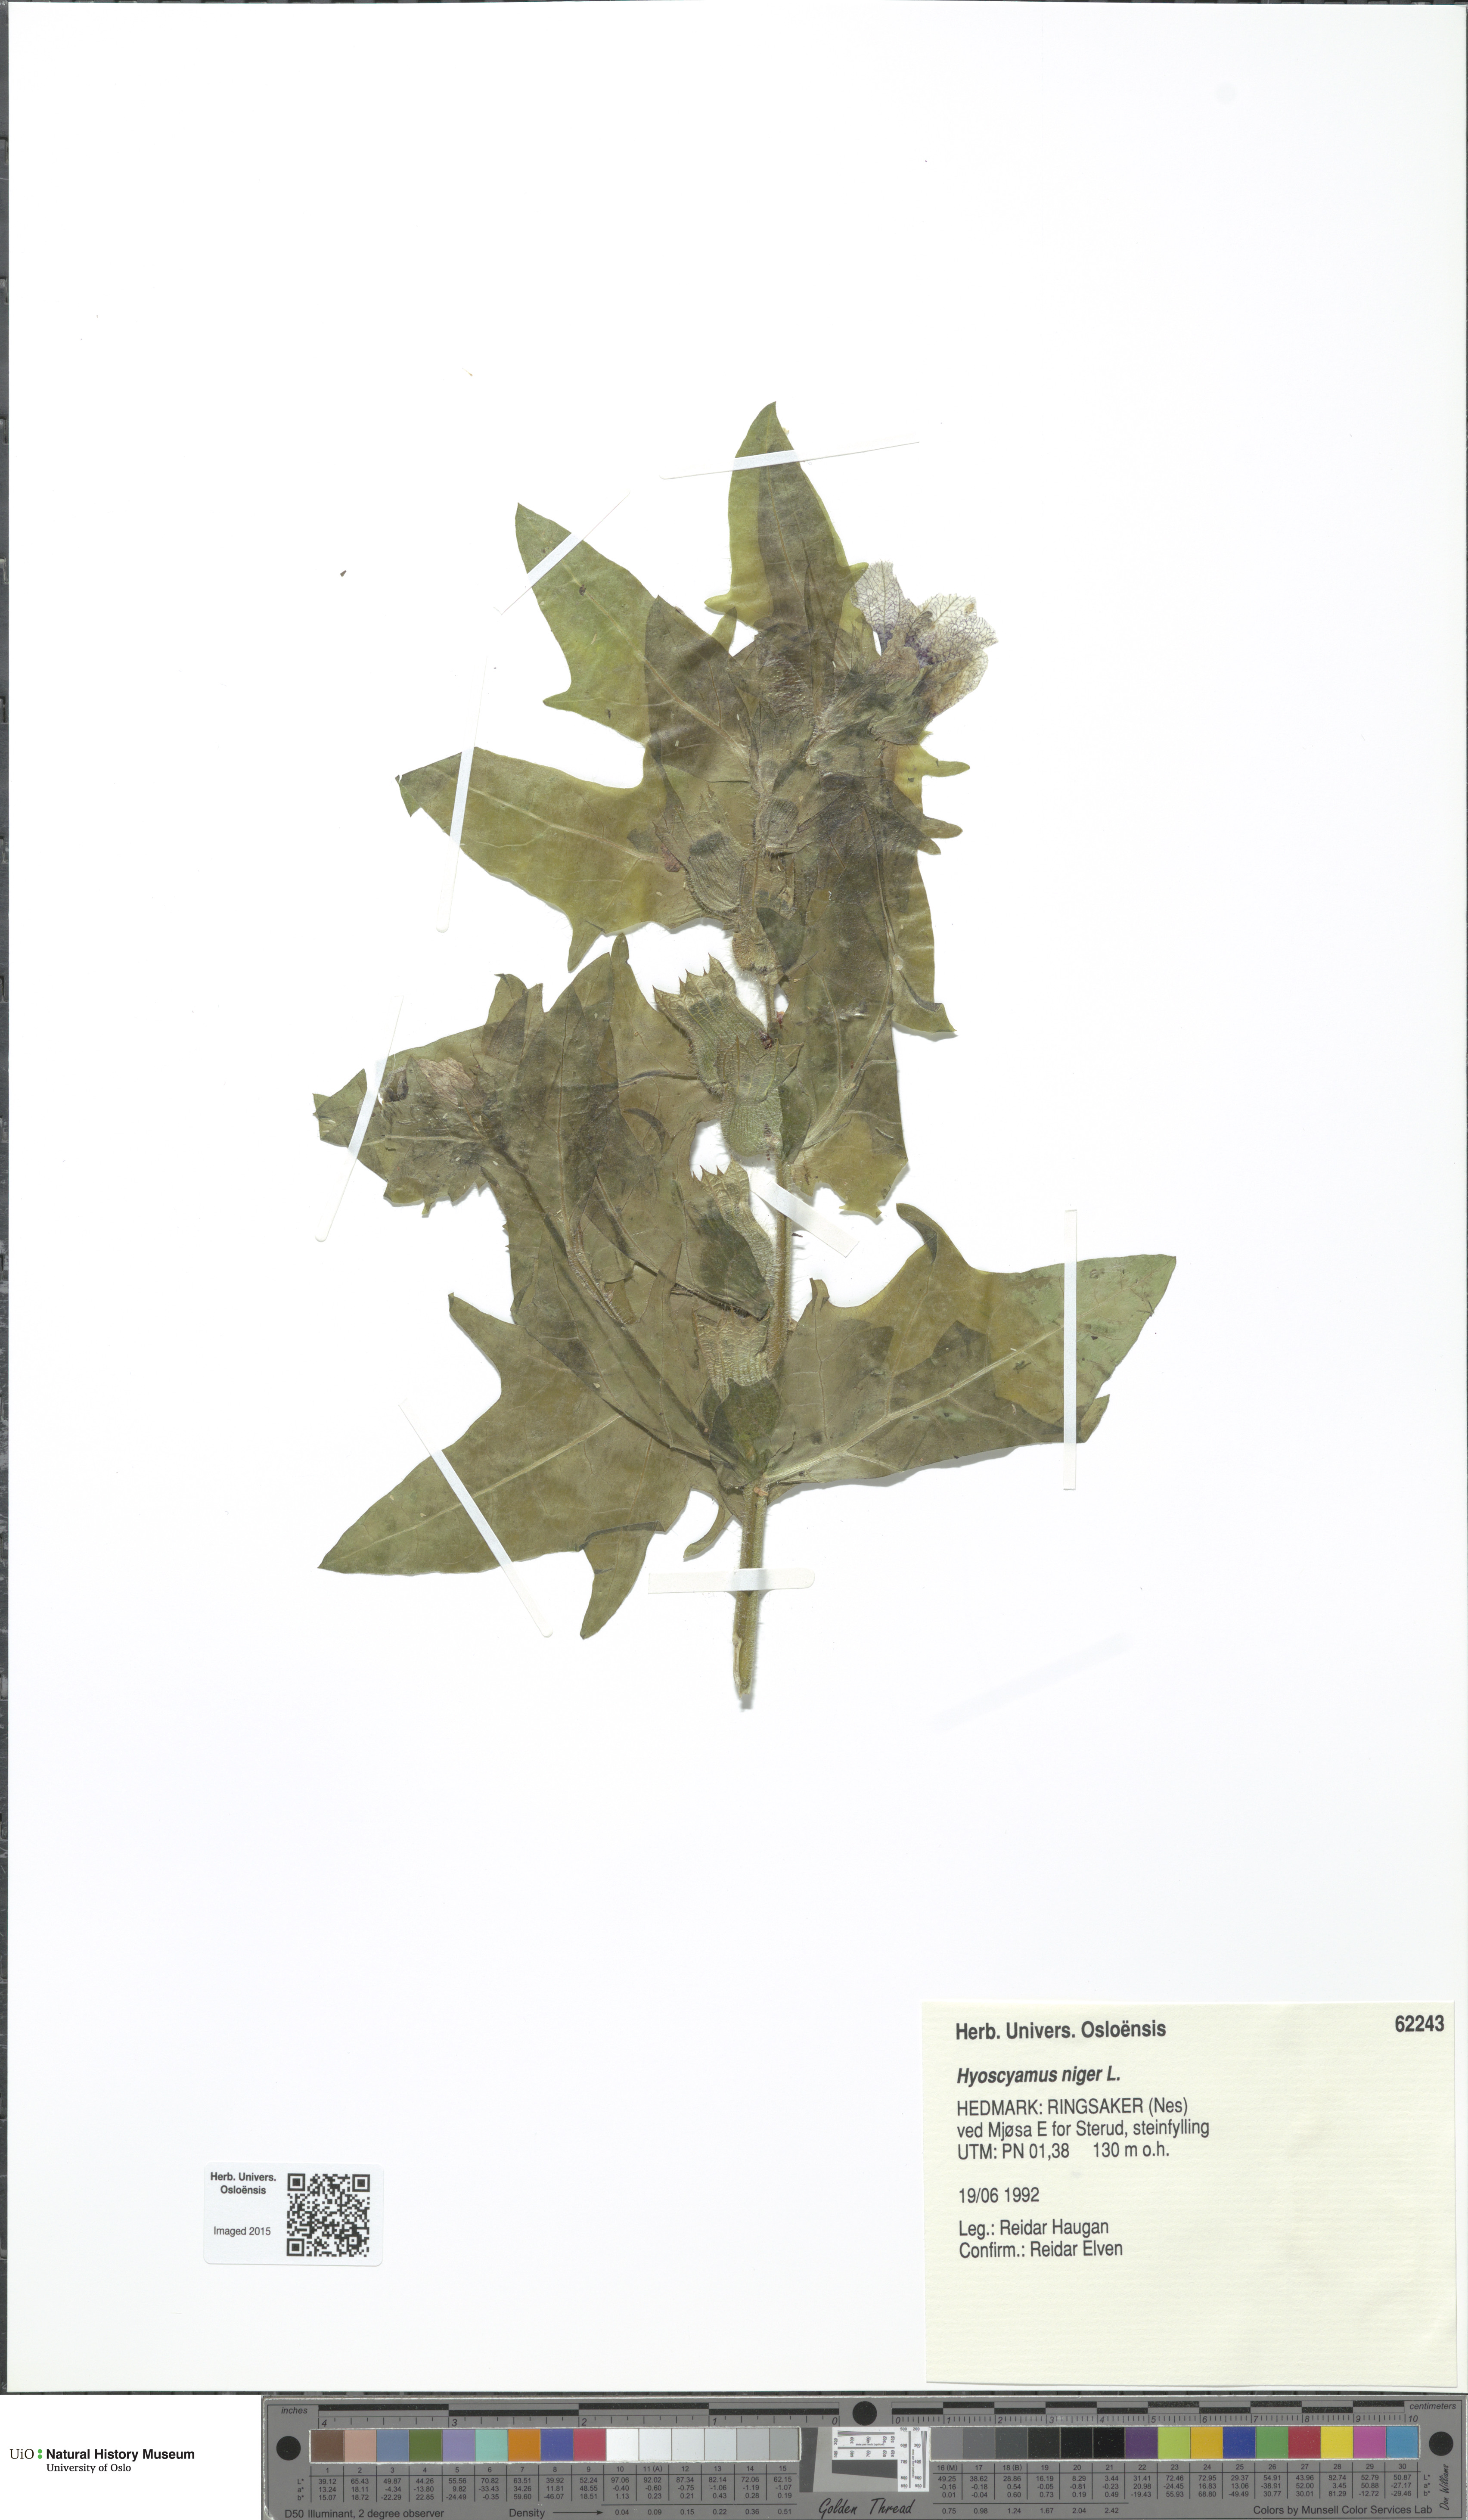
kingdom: Plantae
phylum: Tracheophyta
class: Magnoliopsida
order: Solanales
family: Solanaceae
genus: Hyoscyamus
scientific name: Hyoscyamus niger
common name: Henbane
